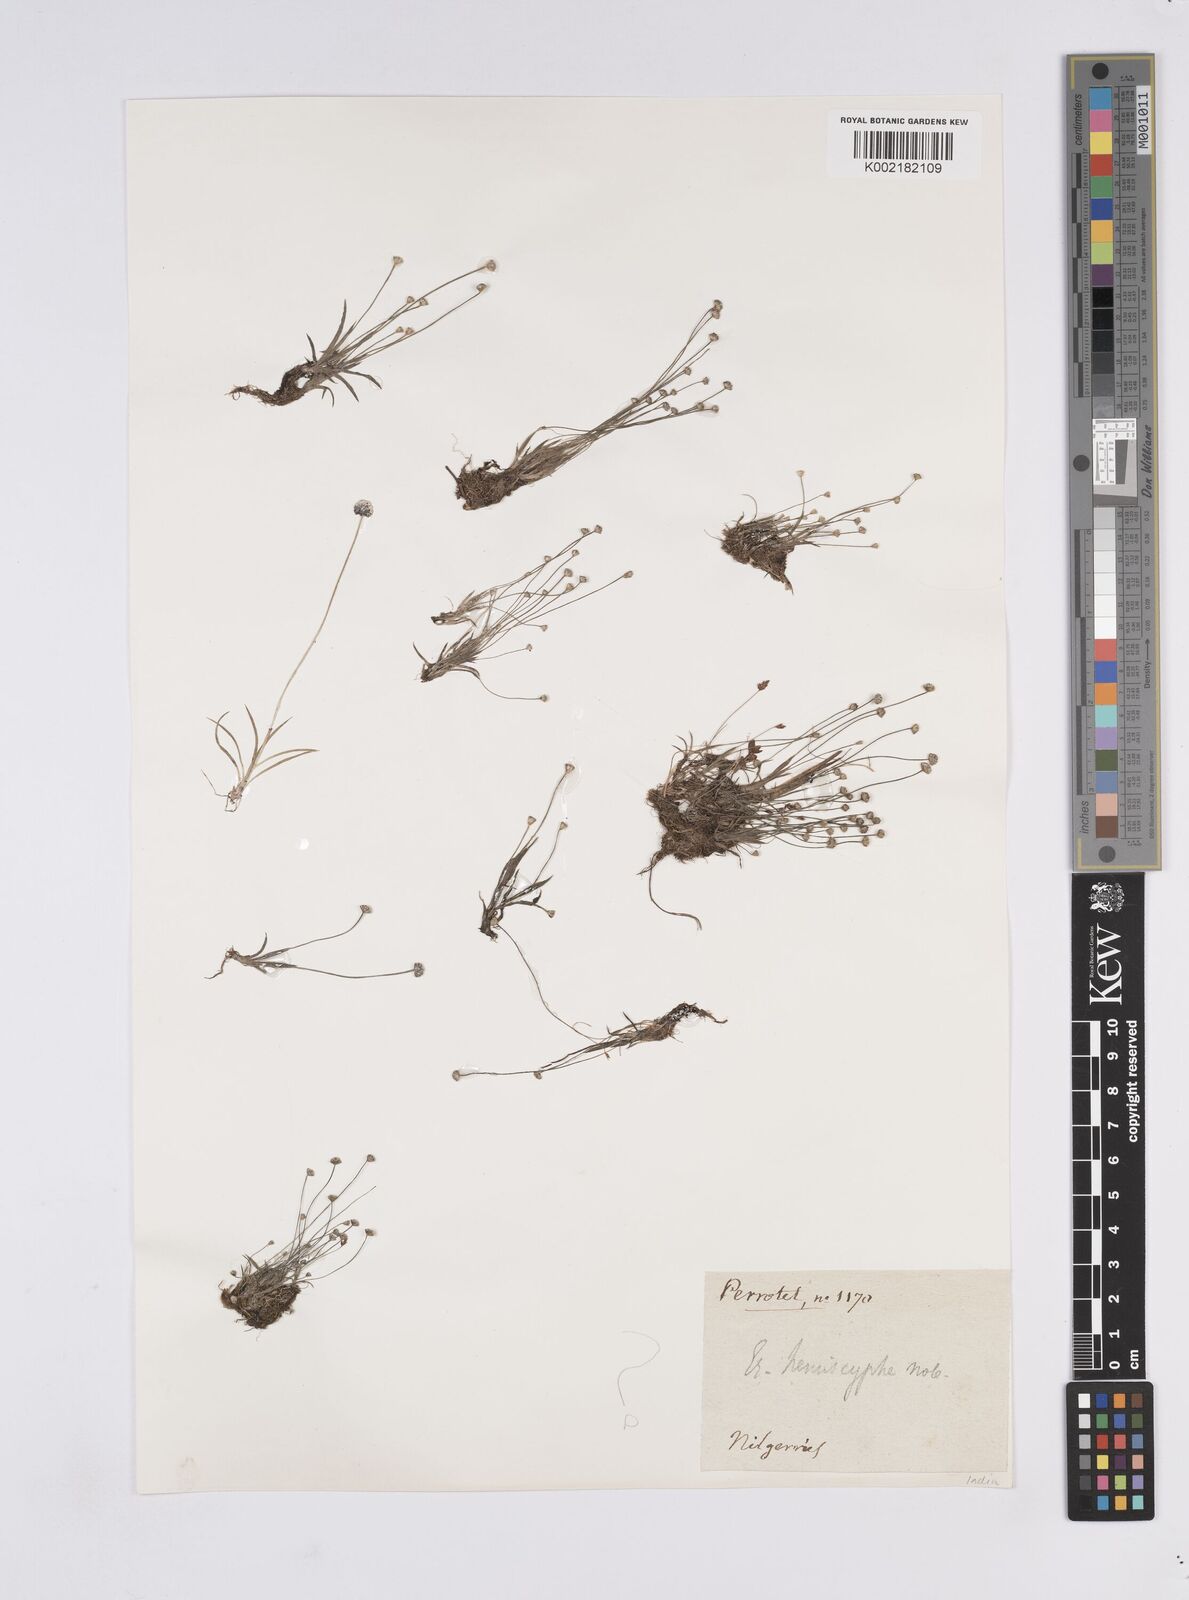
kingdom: Plantae
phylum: Tracheophyta
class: Liliopsida
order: Poales
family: Eriocaulaceae
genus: Eriocaulon
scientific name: Eriocaulon
